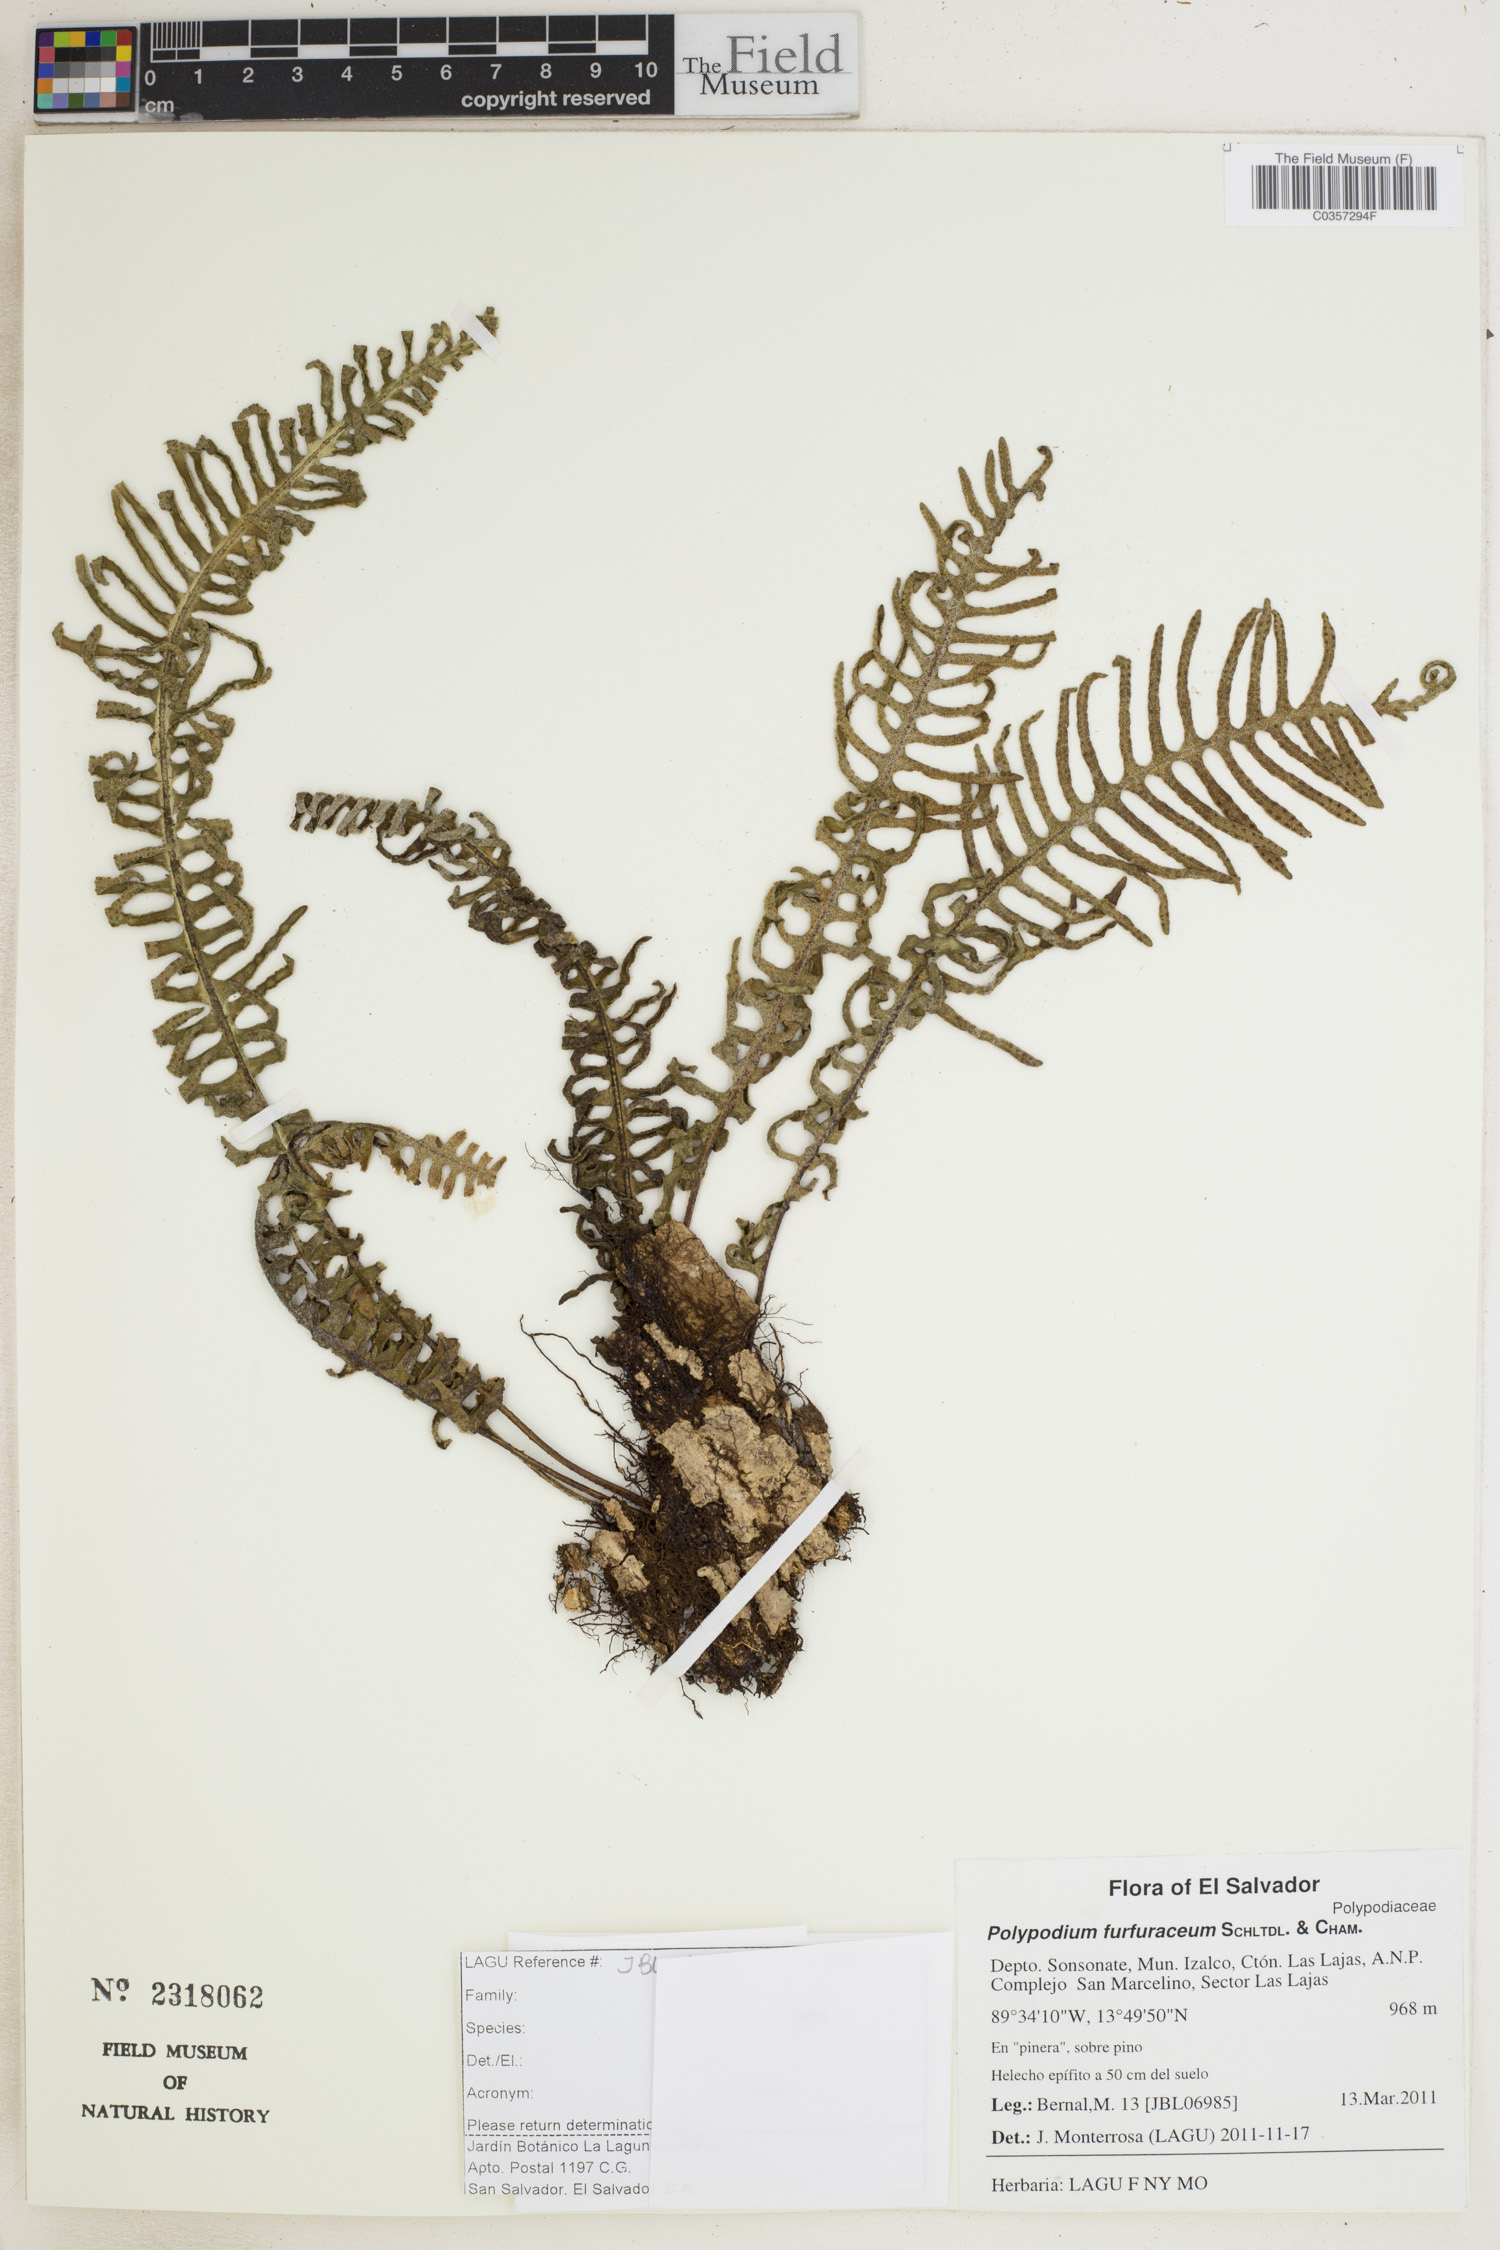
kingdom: Plantae
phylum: Tracheophyta
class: Polypodiopsida
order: Polypodiales
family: Polypodiaceae
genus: Pleopeltis
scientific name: Pleopeltis furfuracea
